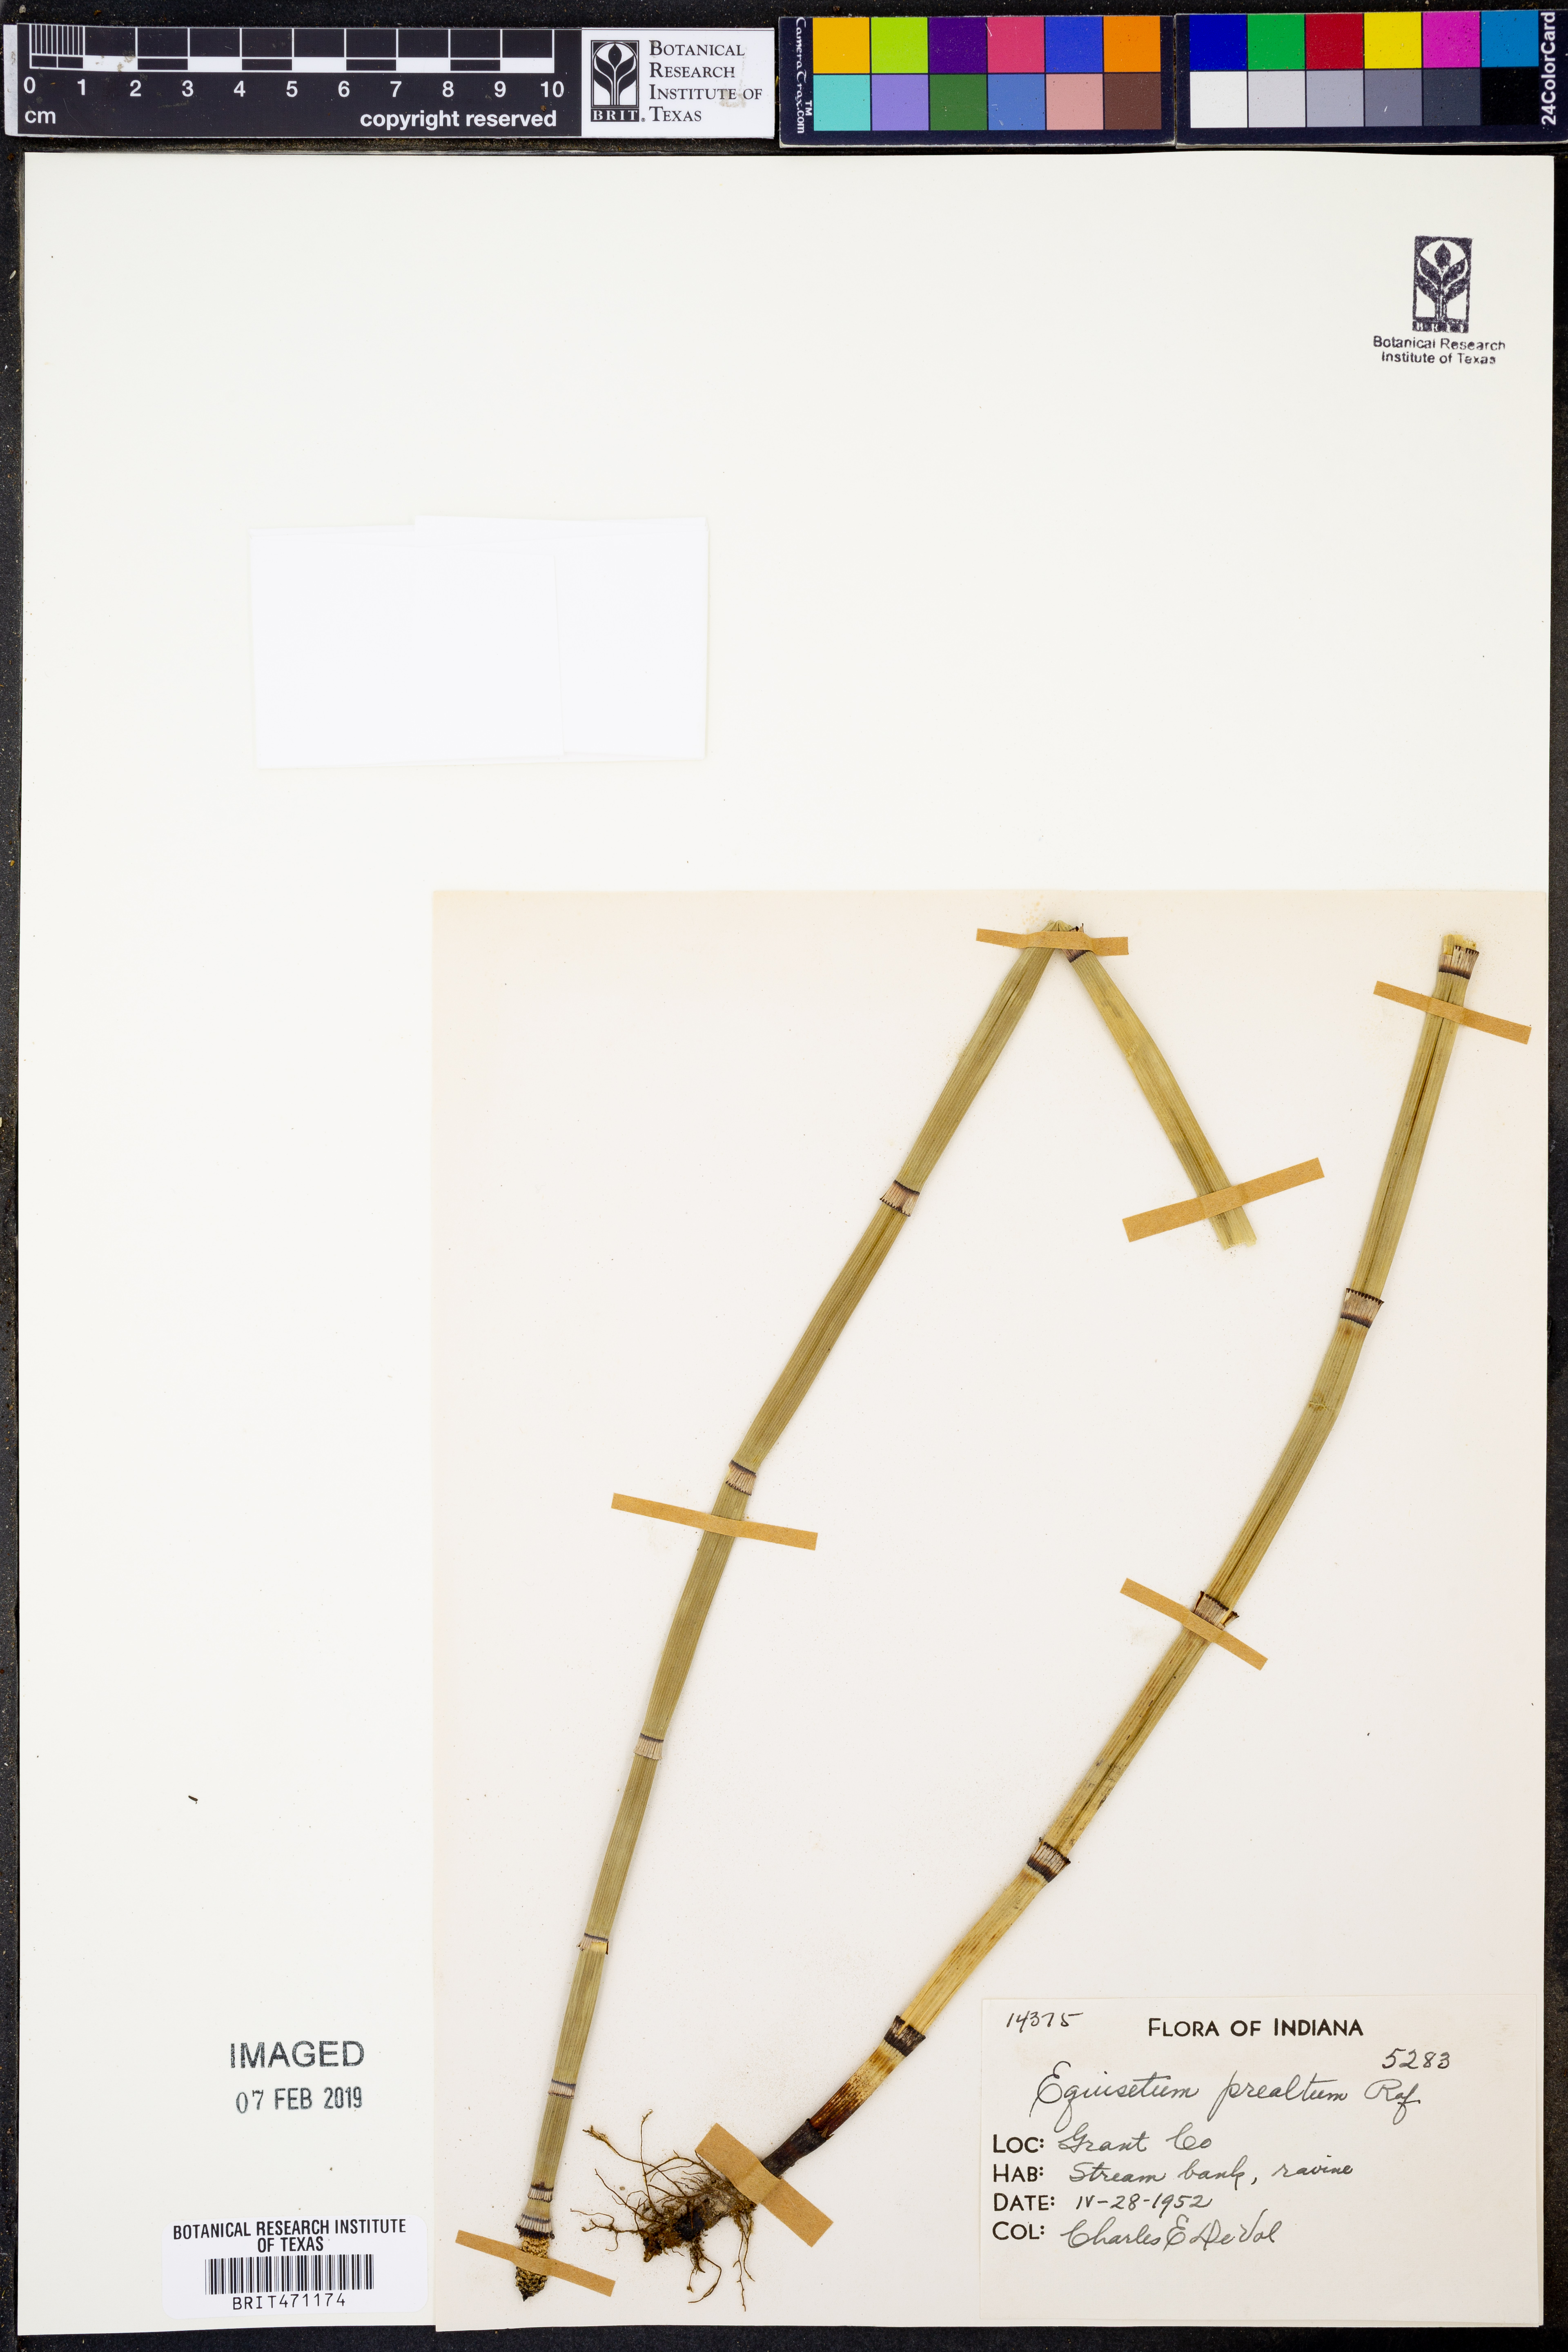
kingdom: Plantae
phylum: Tracheophyta
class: Polypodiopsida
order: Equisetales
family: Equisetaceae
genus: Equisetum
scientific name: Equisetum praealtum
